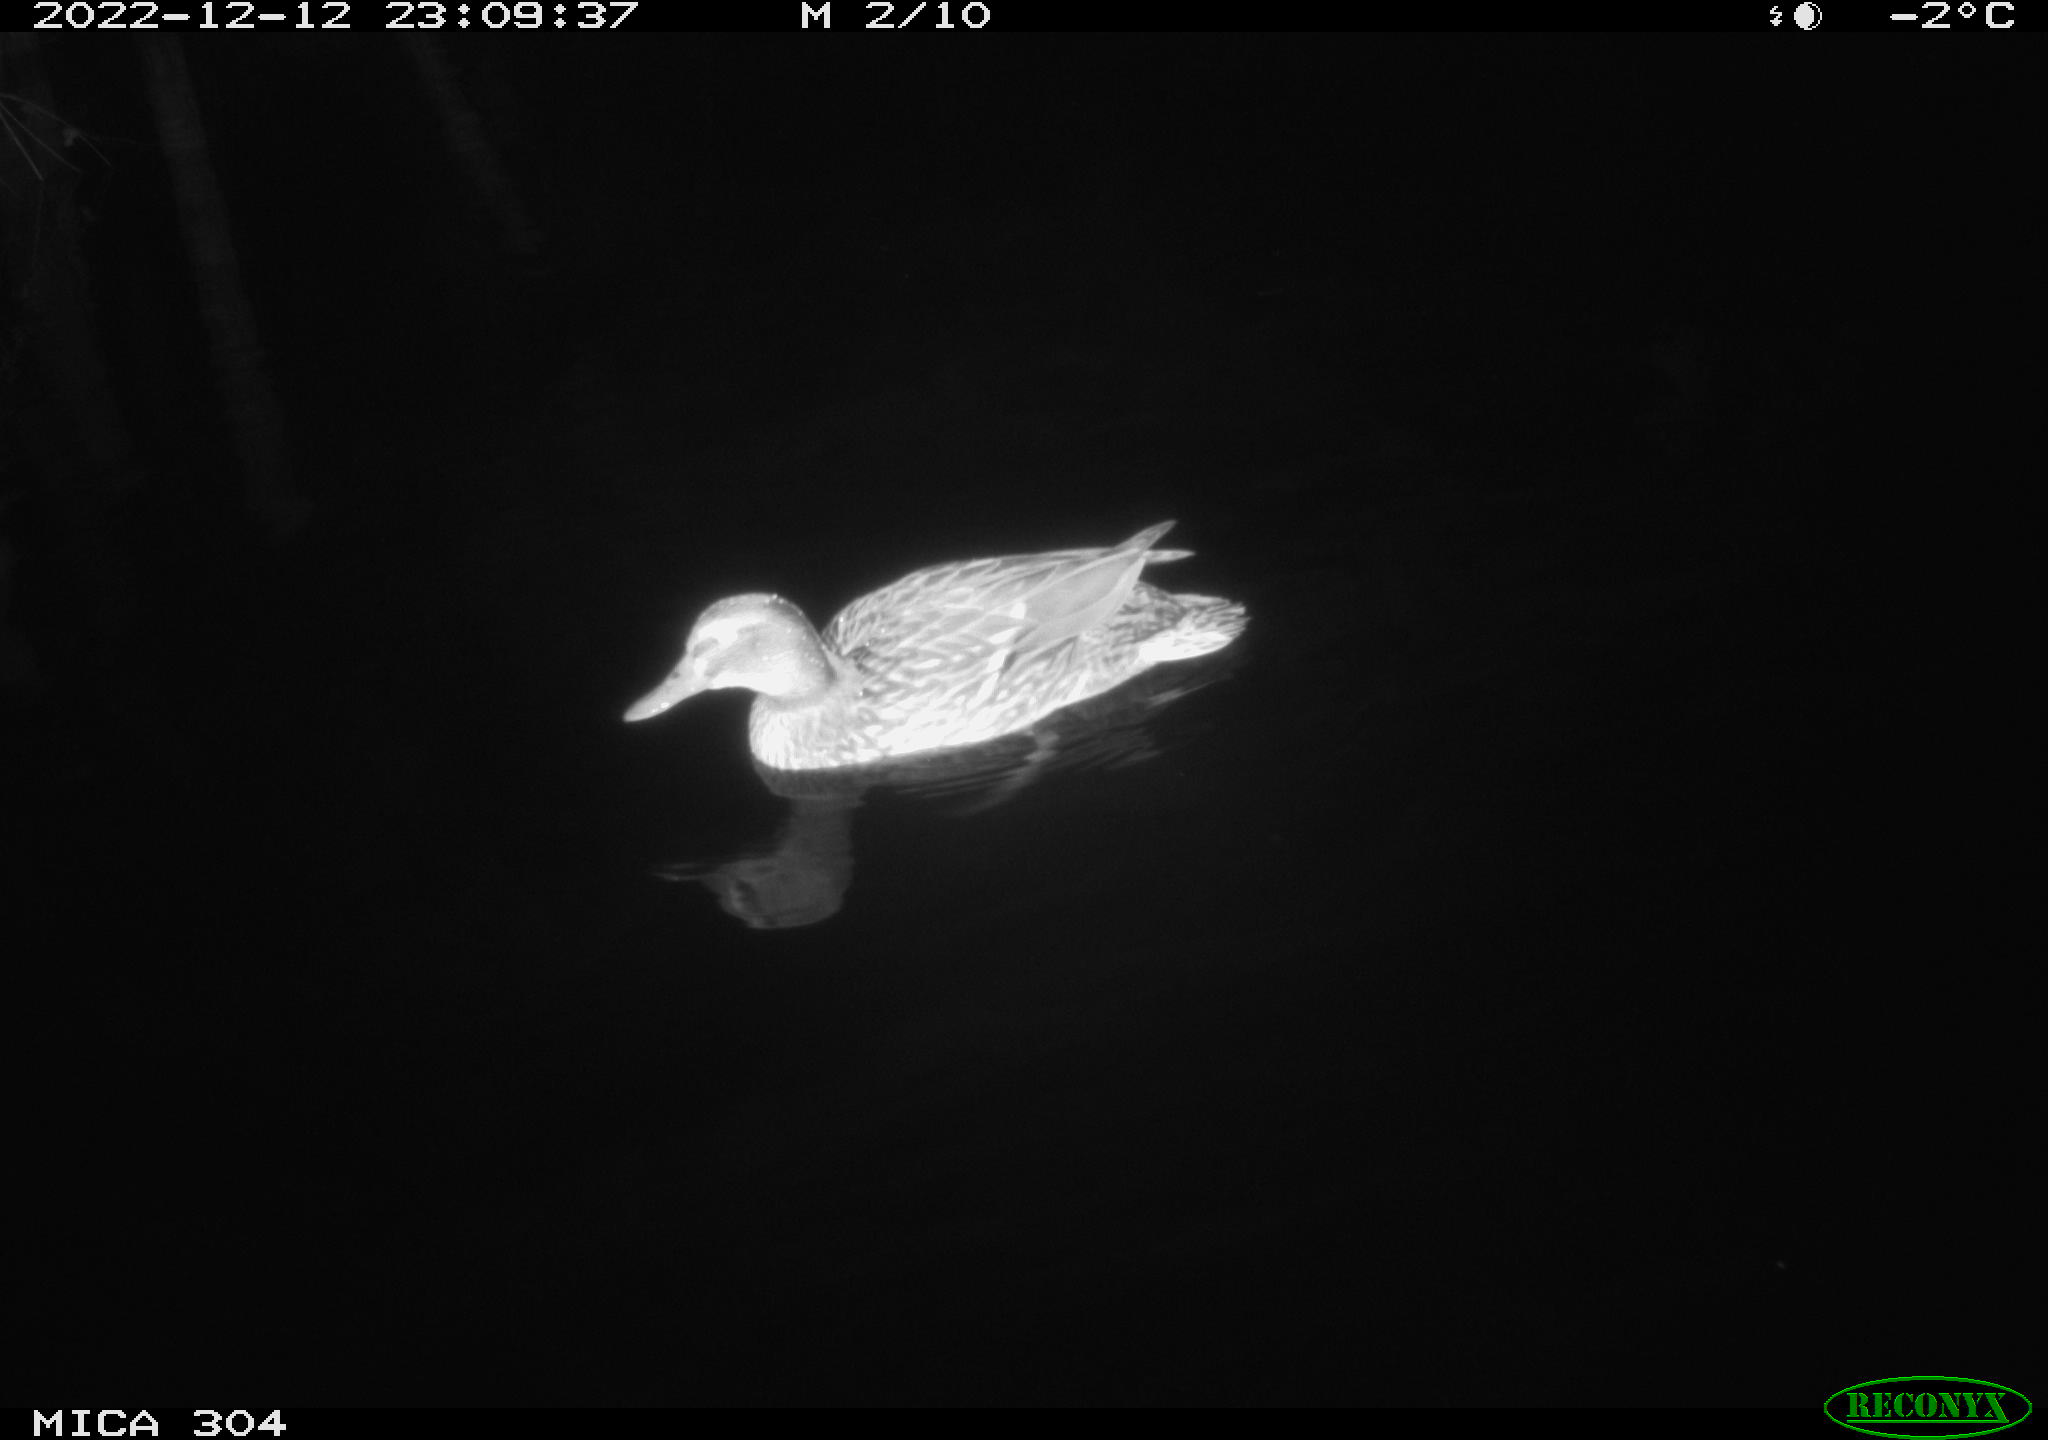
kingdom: Animalia
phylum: Chordata
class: Mammalia
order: Rodentia
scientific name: Rodentia
